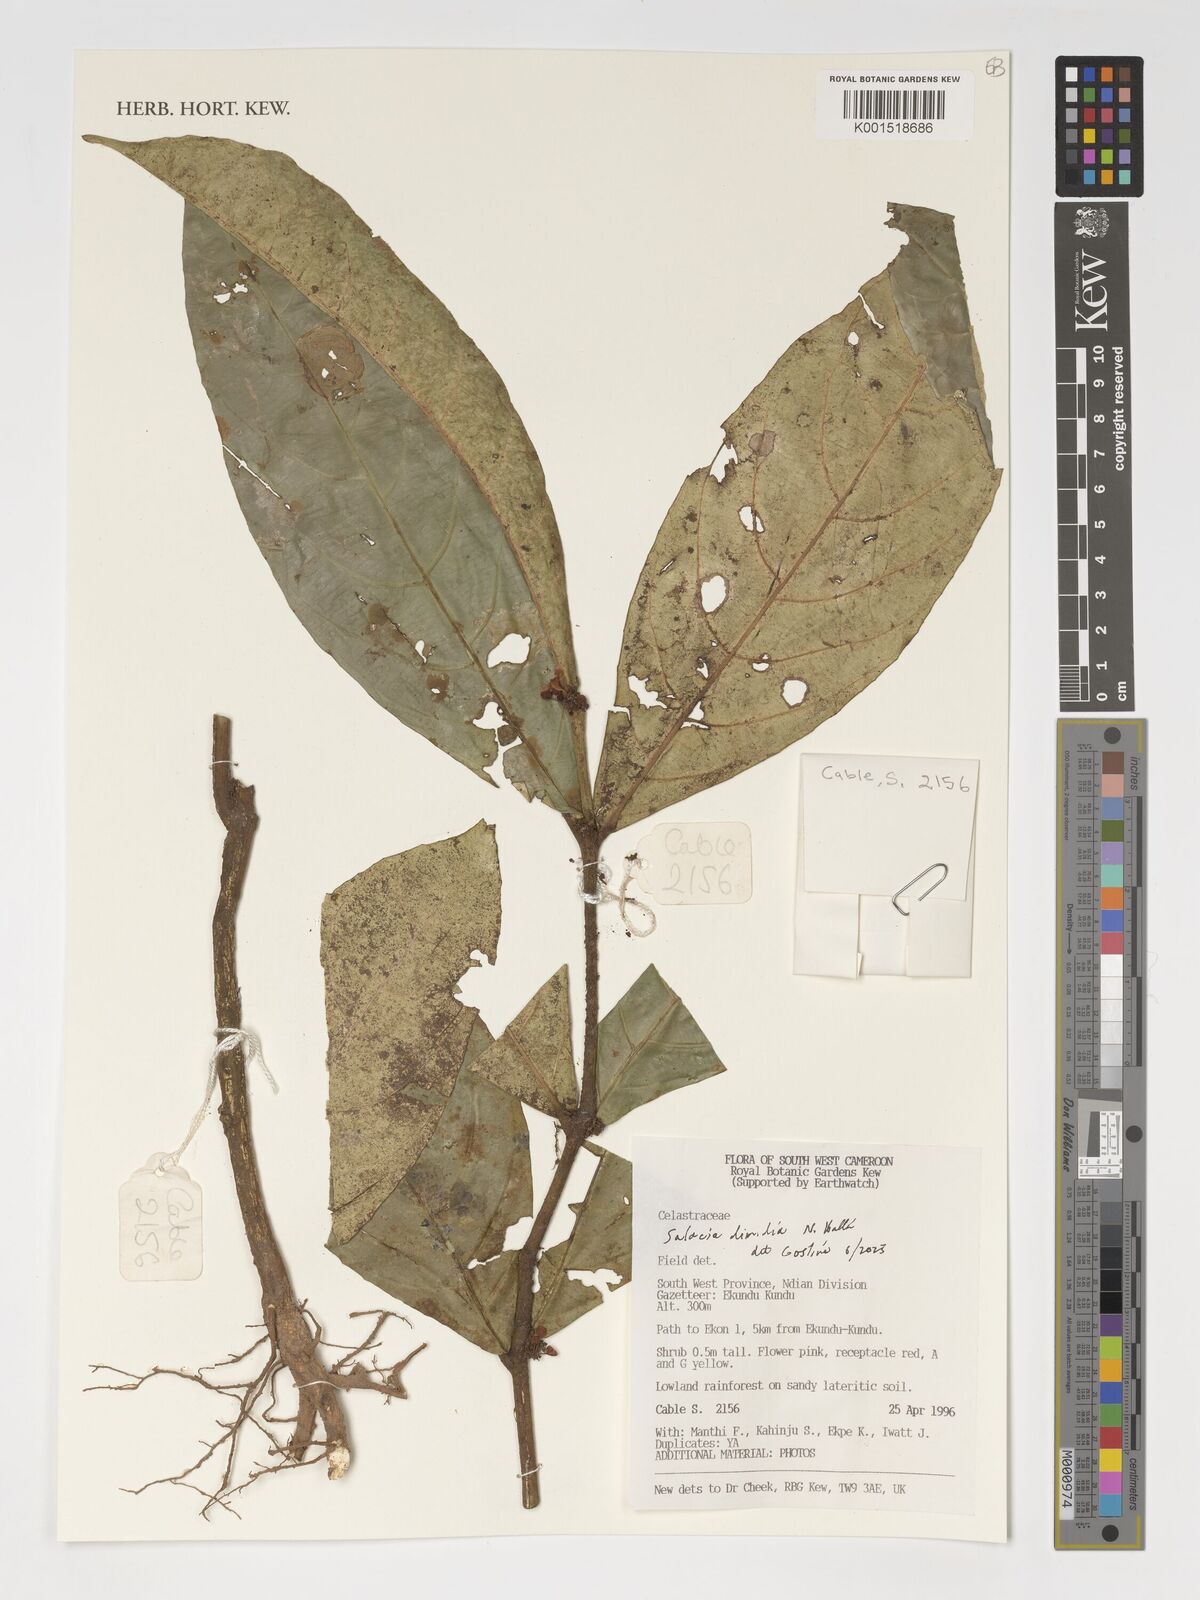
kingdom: Plantae
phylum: Tracheophyta
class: Magnoliopsida
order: Celastrales
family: Celastraceae
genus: Salacia
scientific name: Salacia dimidia
